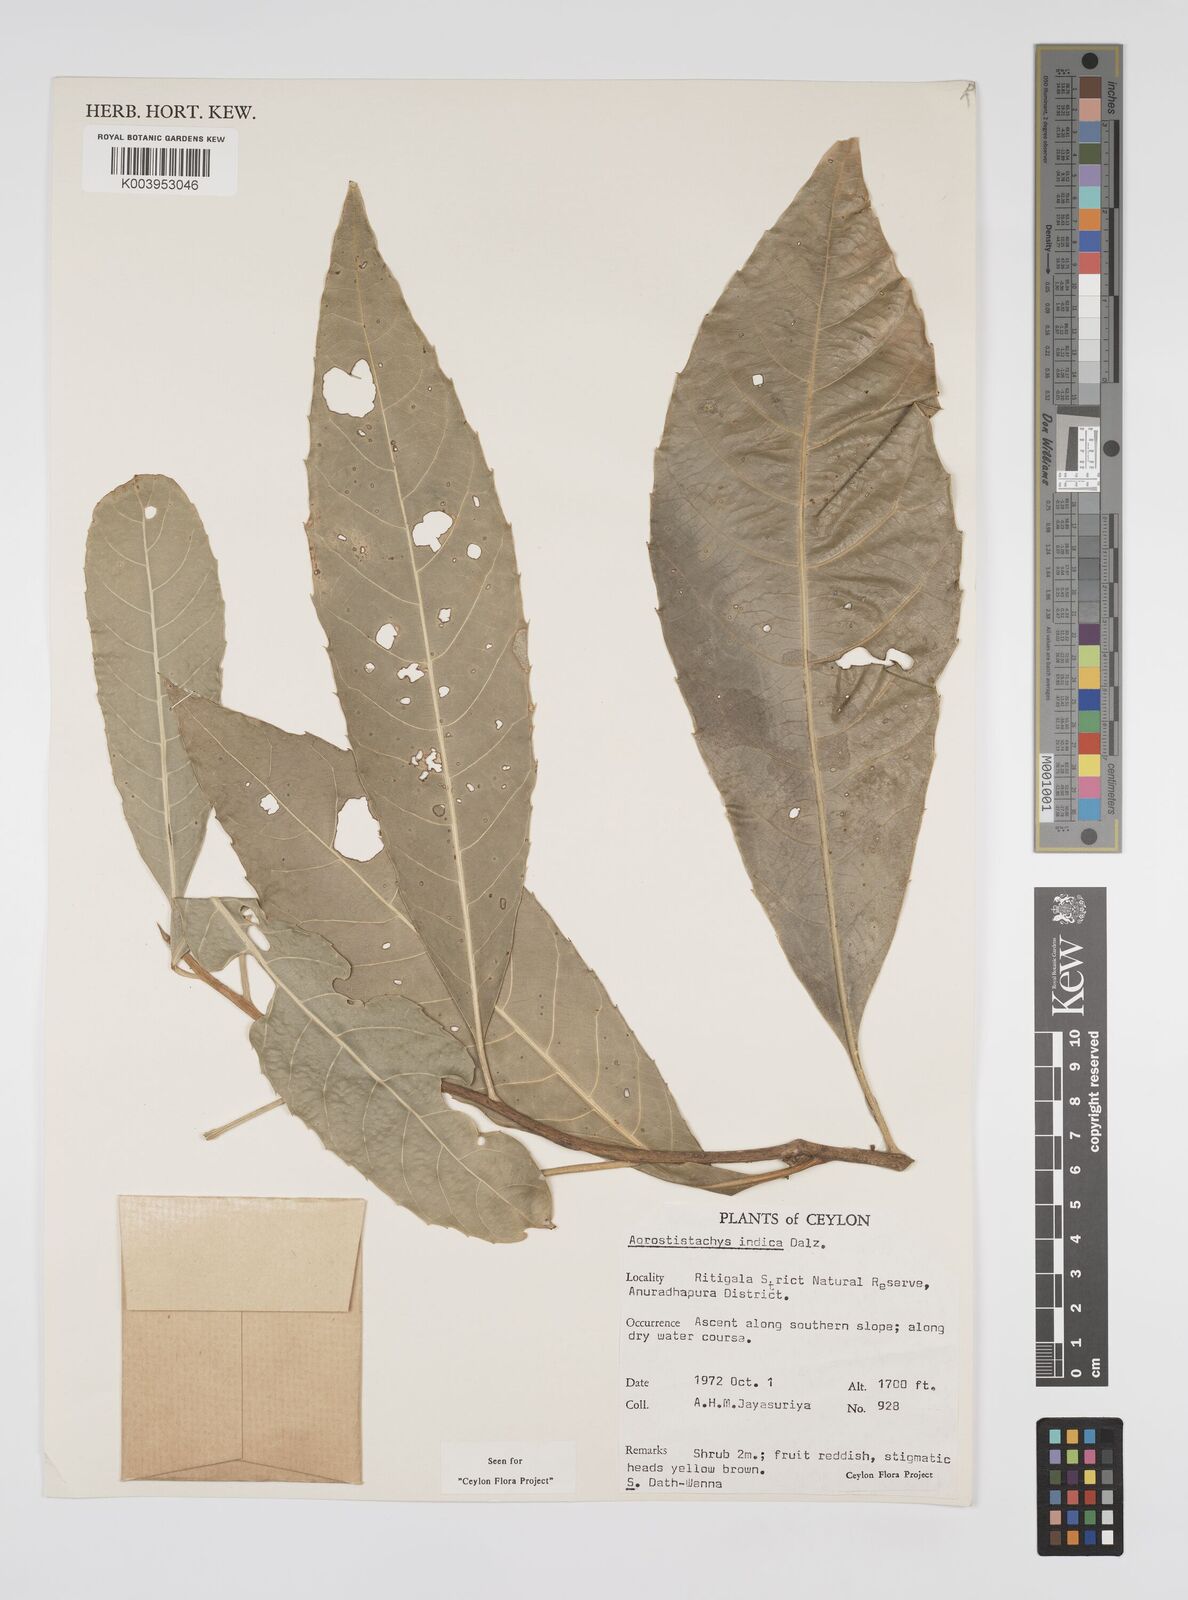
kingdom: Plantae
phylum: Tracheophyta
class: Magnoliopsida
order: Malpighiales
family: Euphorbiaceae
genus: Agrostistachys
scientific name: Agrostistachys indica
